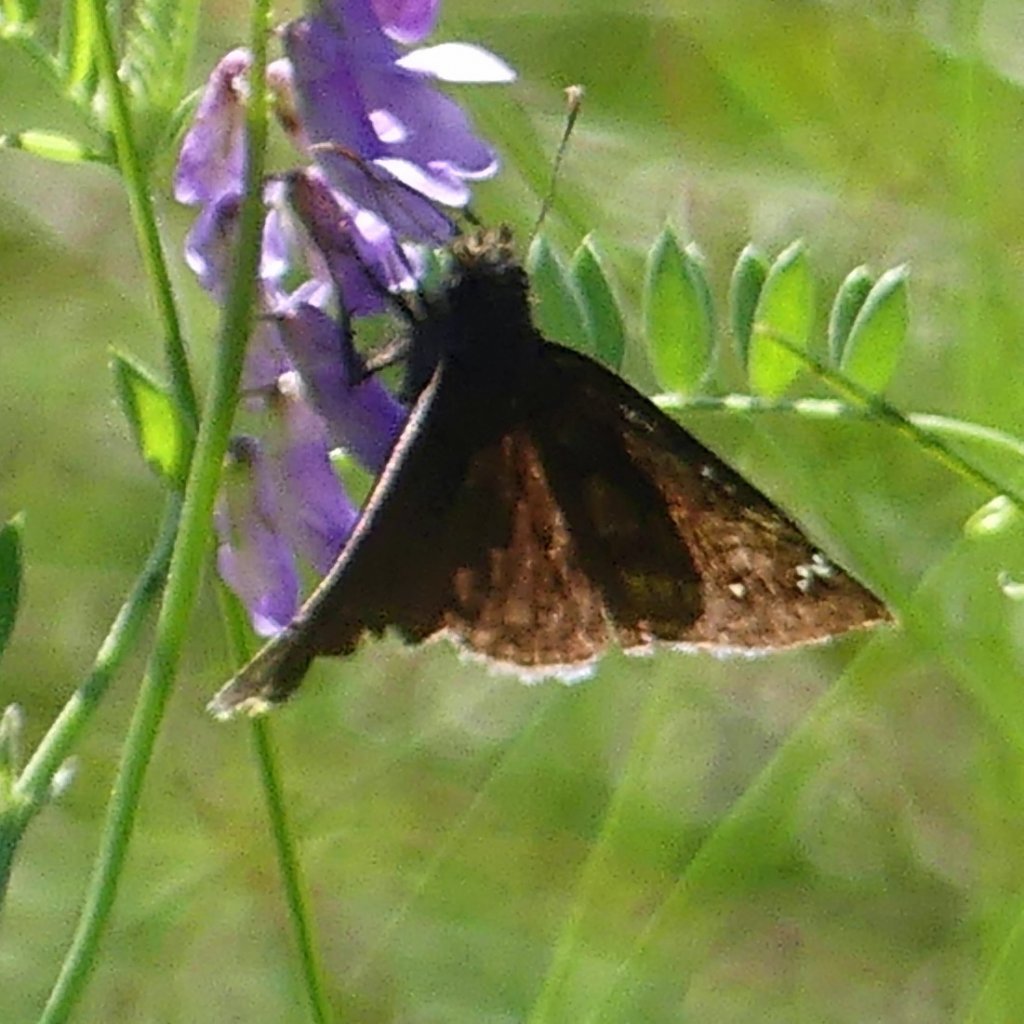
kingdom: Animalia
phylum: Arthropoda
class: Insecta
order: Lepidoptera
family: Hesperiidae
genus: Gesta
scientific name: Gesta
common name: Wild Indigo Duskywing
